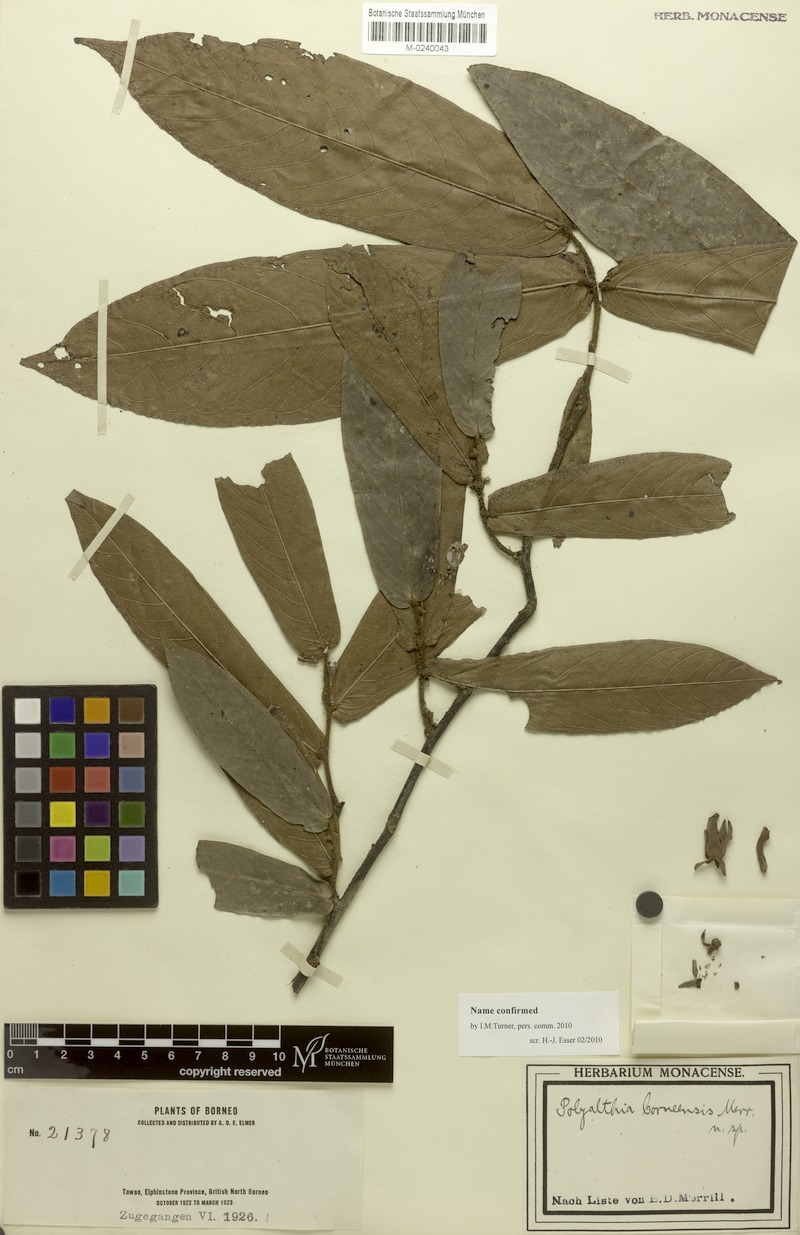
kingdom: Plantae
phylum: Tracheophyta
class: Magnoliopsida
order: Magnoliales
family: Annonaceae
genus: Polyalthia
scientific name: Polyalthia borneensis
